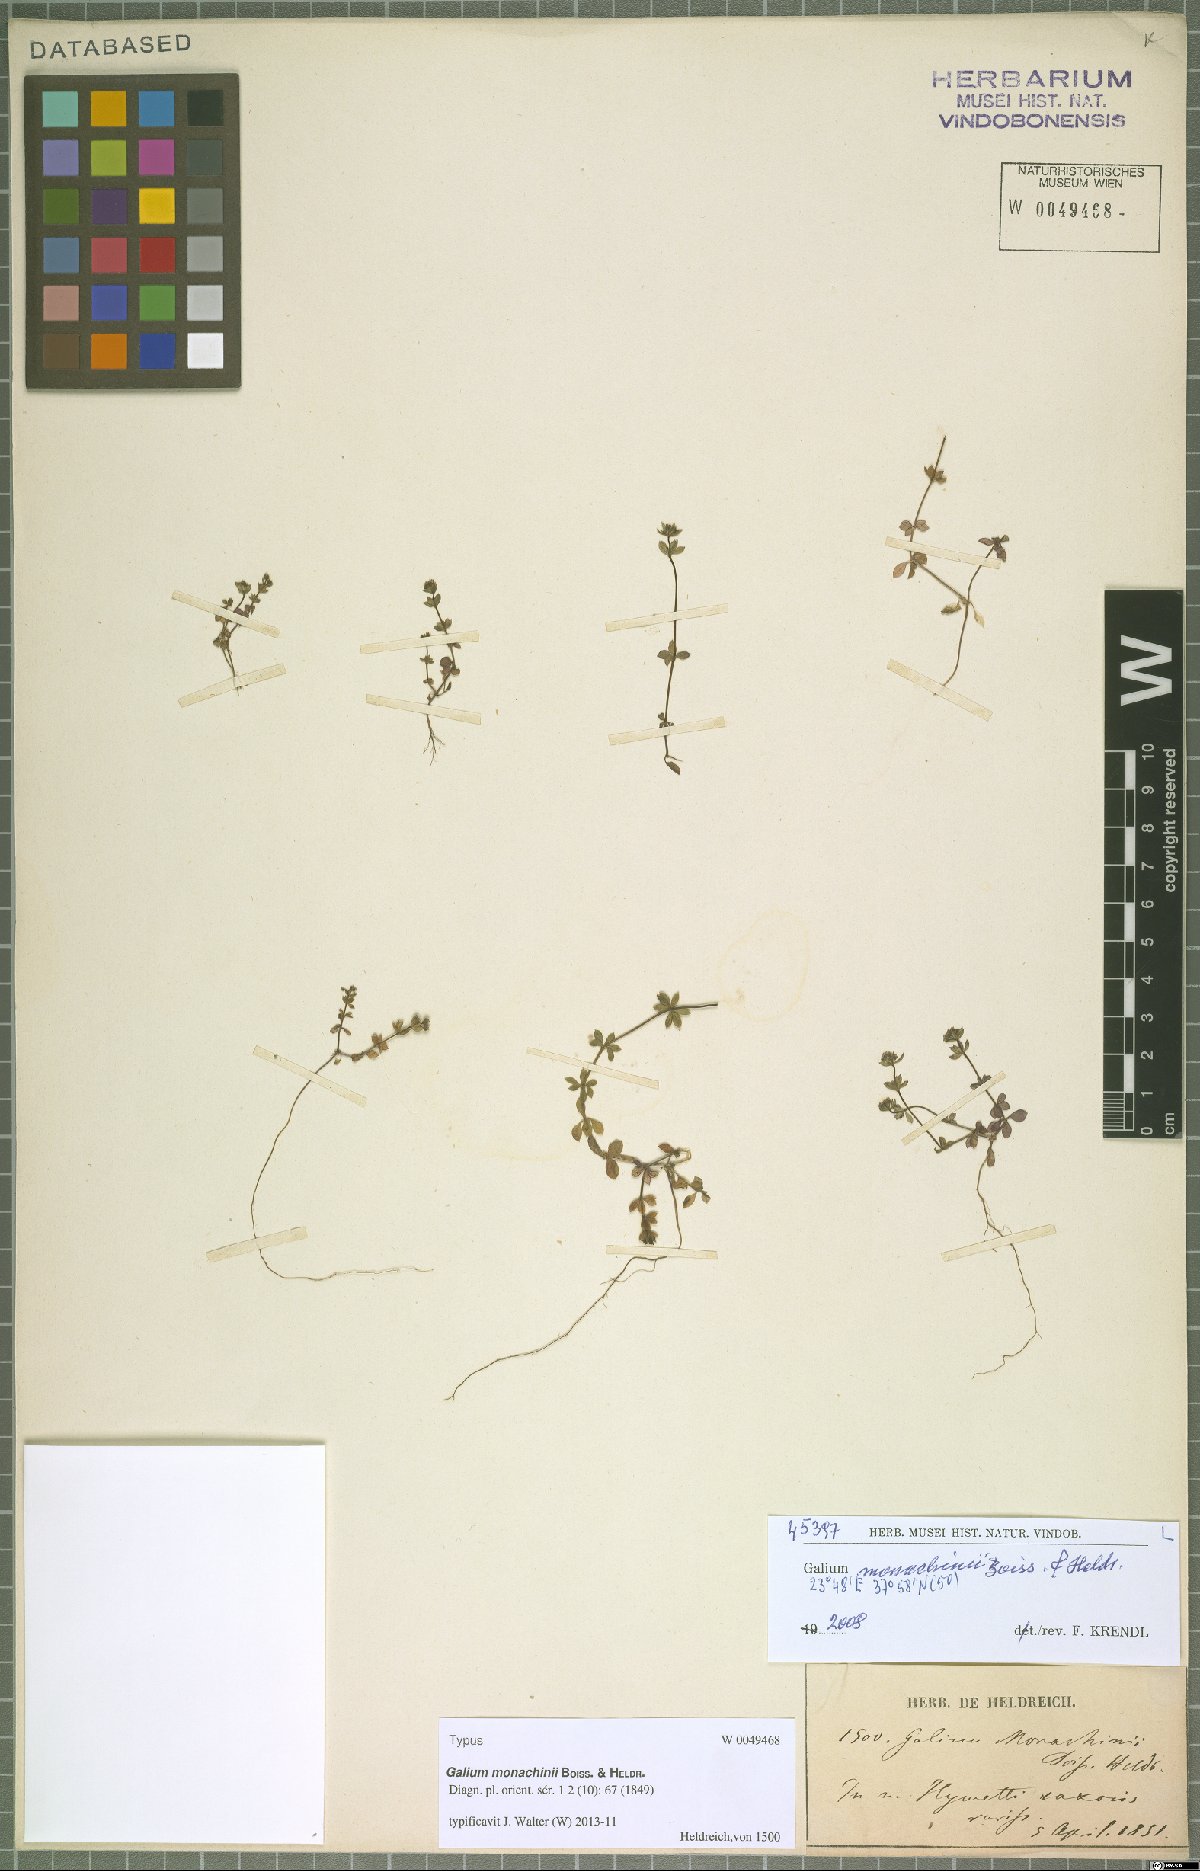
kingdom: Plantae
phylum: Tracheophyta
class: Magnoliopsida
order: Gentianales
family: Rubiaceae
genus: Galium
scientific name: Galium monachinii
